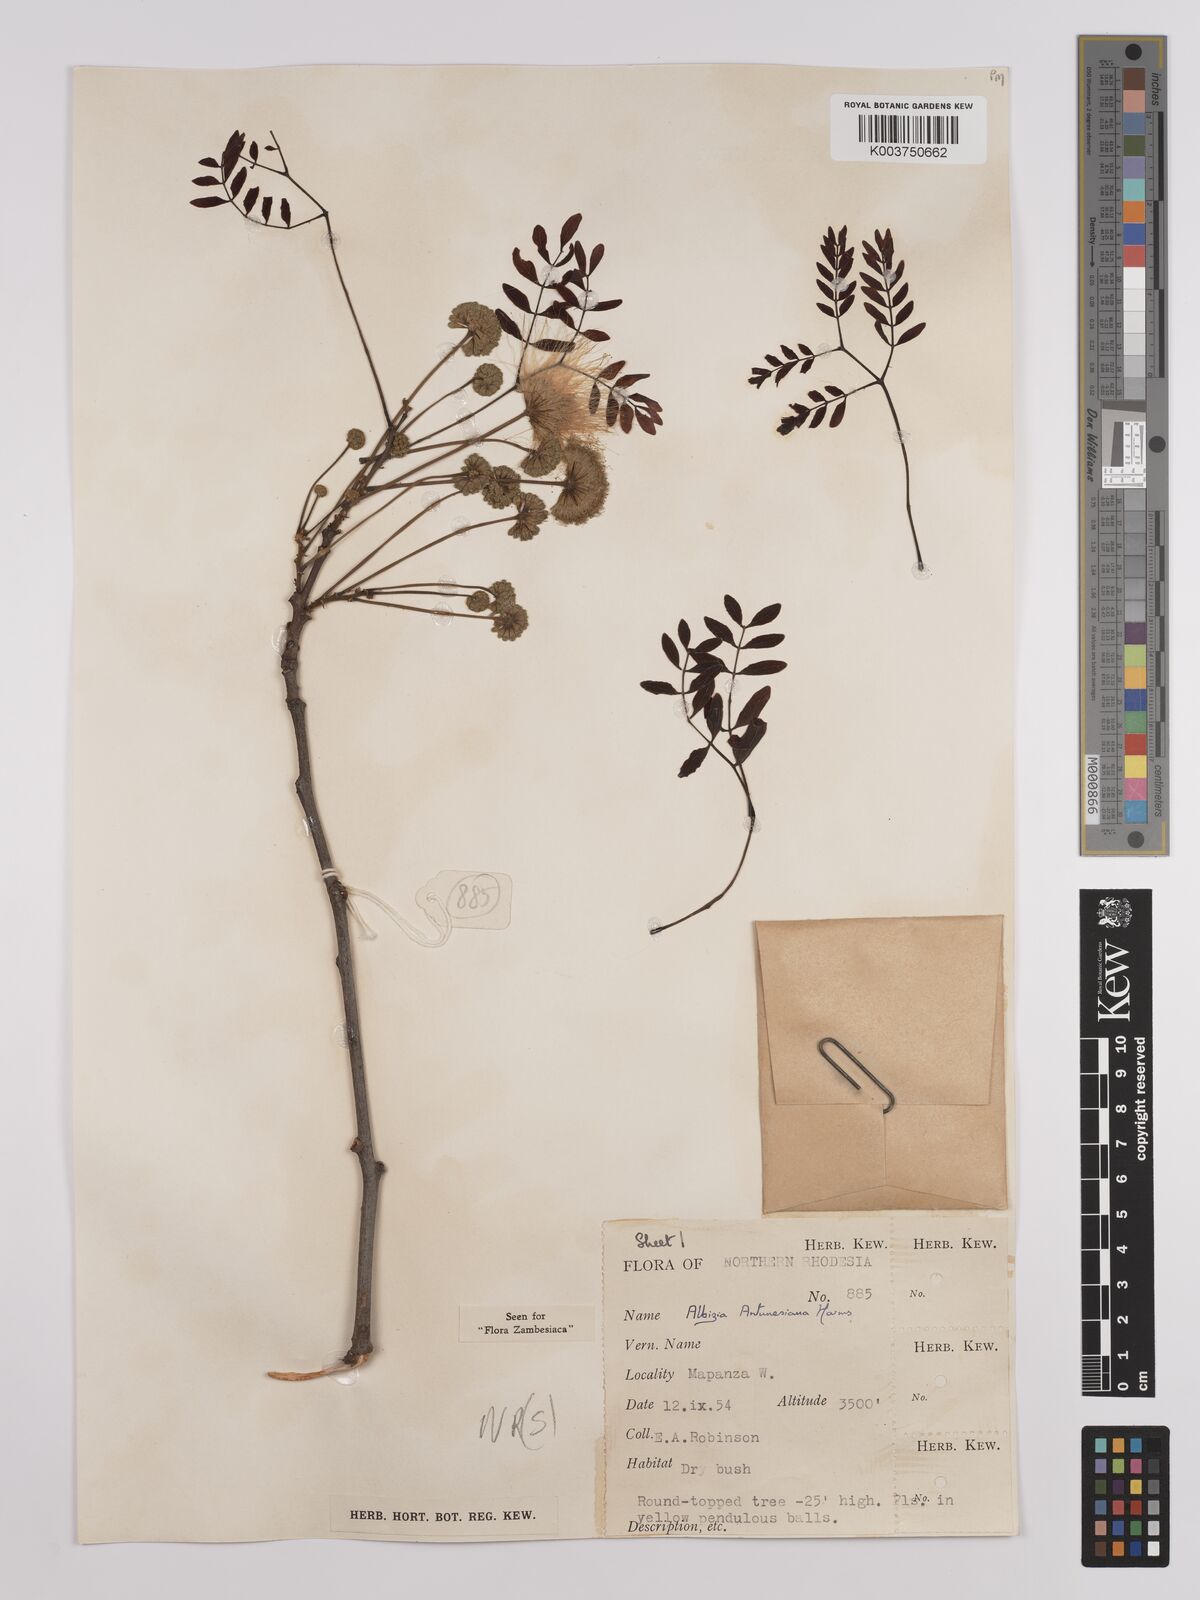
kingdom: Plantae
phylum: Tracheophyta
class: Magnoliopsida
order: Fabales
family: Fabaceae
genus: Albizia
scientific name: Albizia antunesiana
